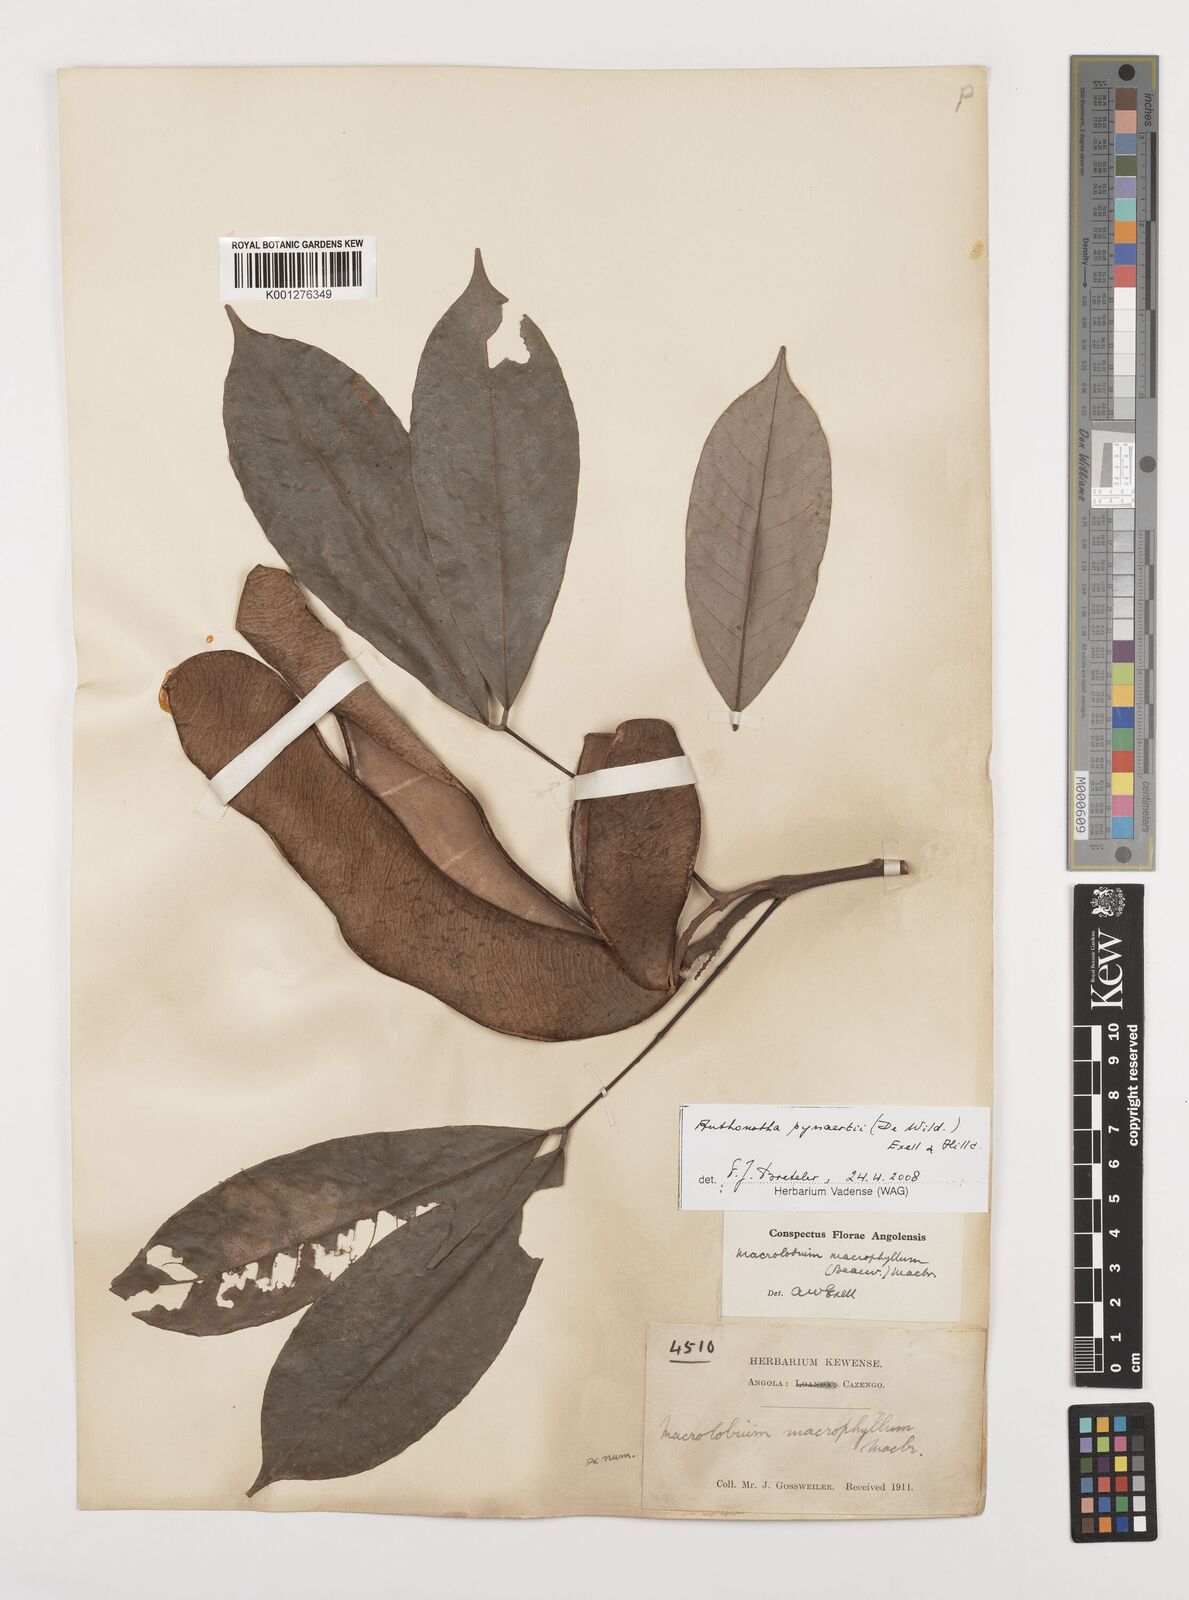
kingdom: Plantae
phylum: Tracheophyta
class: Magnoliopsida
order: Fabales
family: Fabaceae
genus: Anthonotha
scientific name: Anthonotha pynaertii
